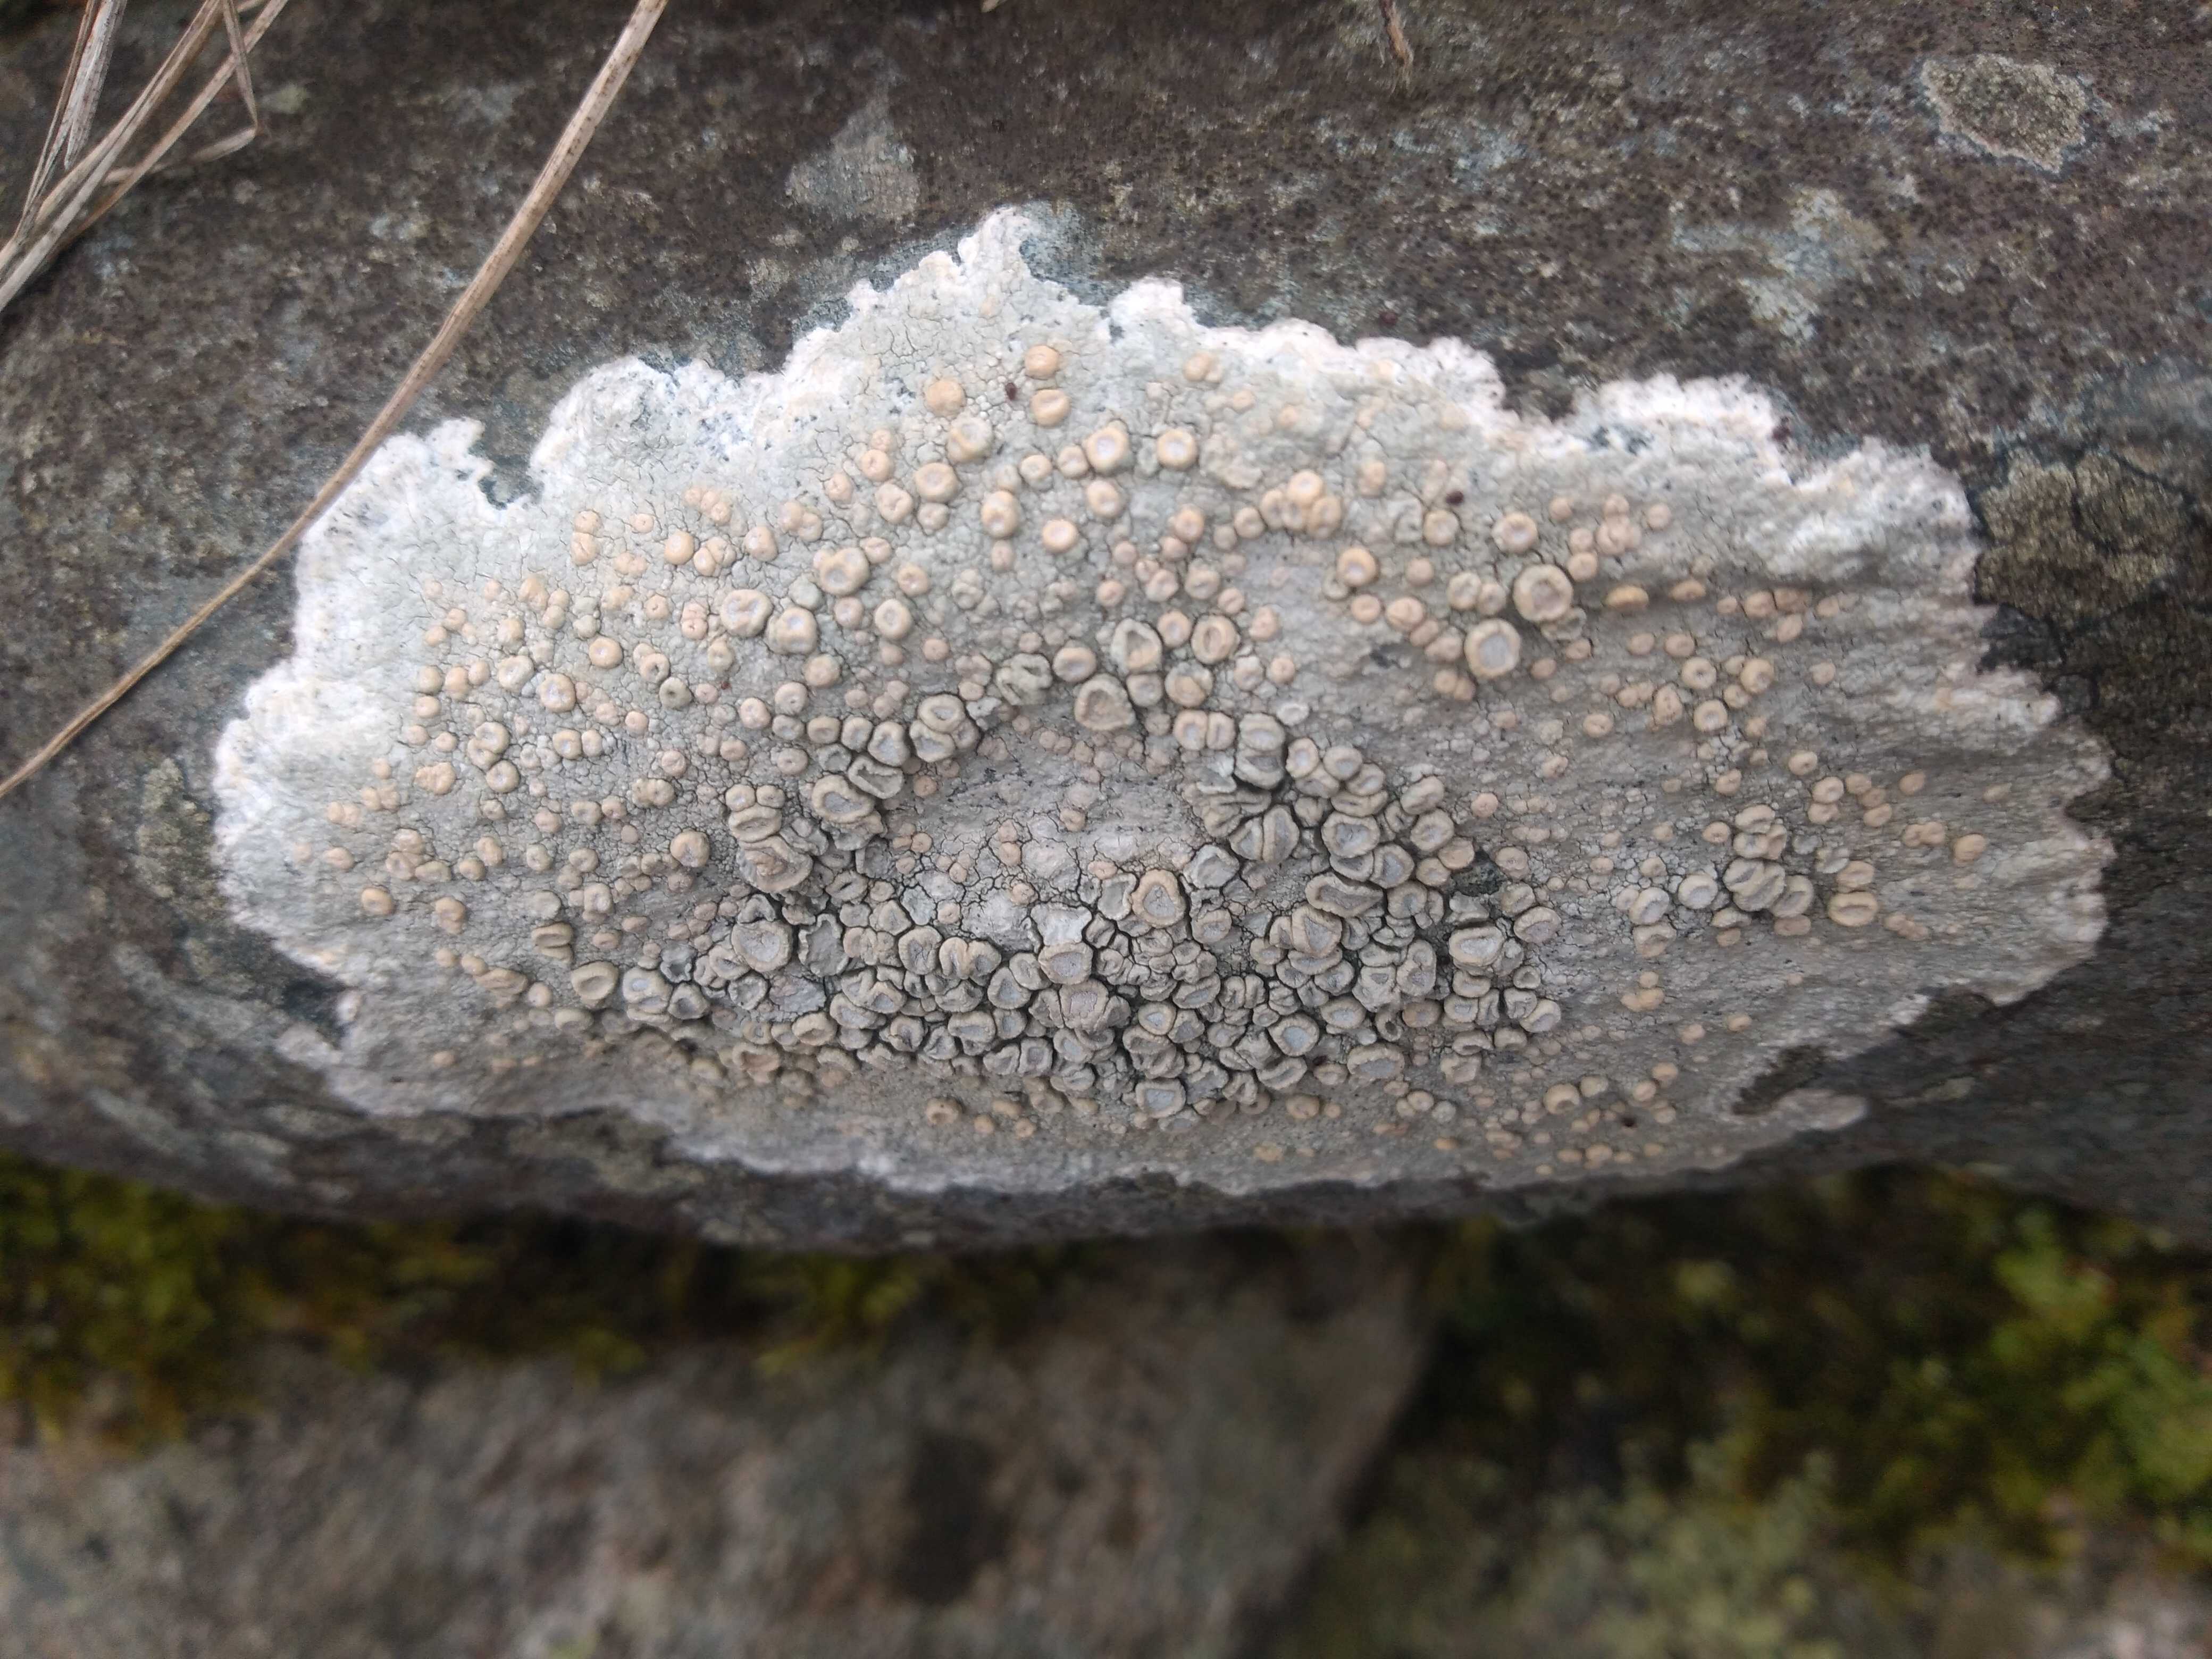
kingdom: Fungi
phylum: Ascomycota
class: Lecanoromycetes
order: Pertusariales
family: Ochrolechiaceae
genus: Ochrolechia
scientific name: Ochrolechia parella
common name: almindelig blegskivelav
